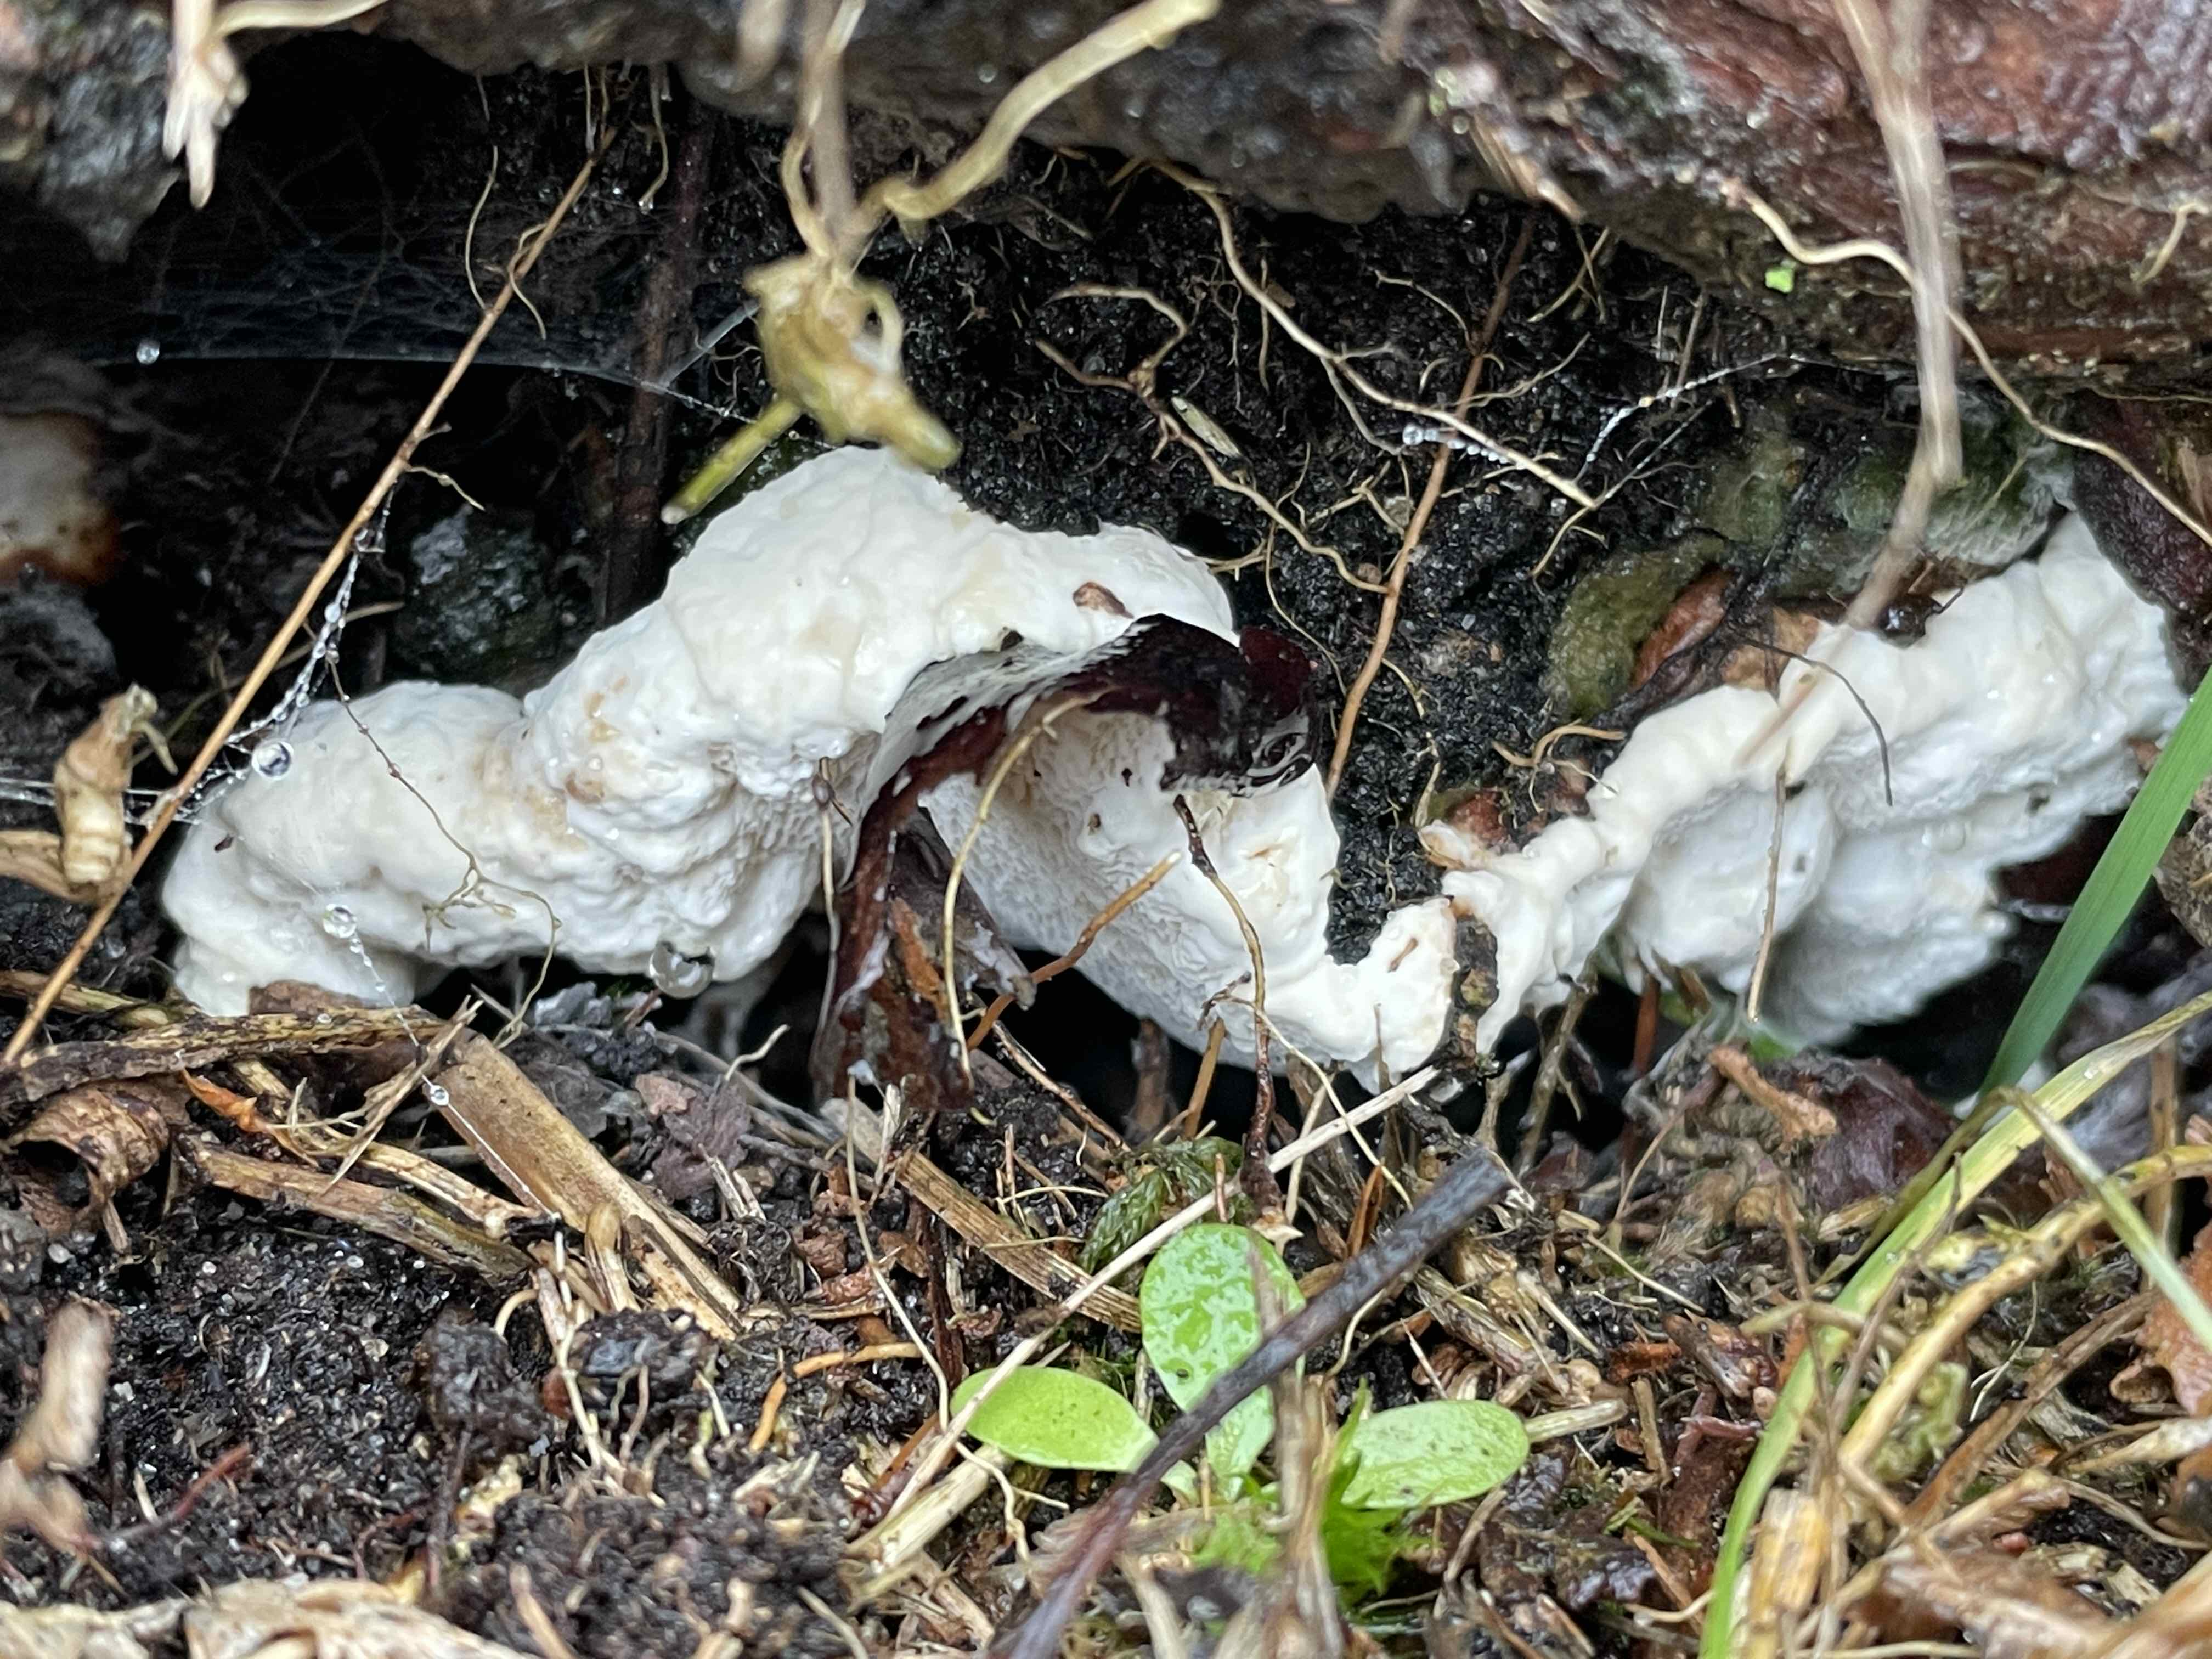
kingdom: Fungi
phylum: Basidiomycota
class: Agaricomycetes
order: Russulales
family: Bondarzewiaceae
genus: Heterobasidion
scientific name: Heterobasidion annosum
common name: almindelig rodfordærver
